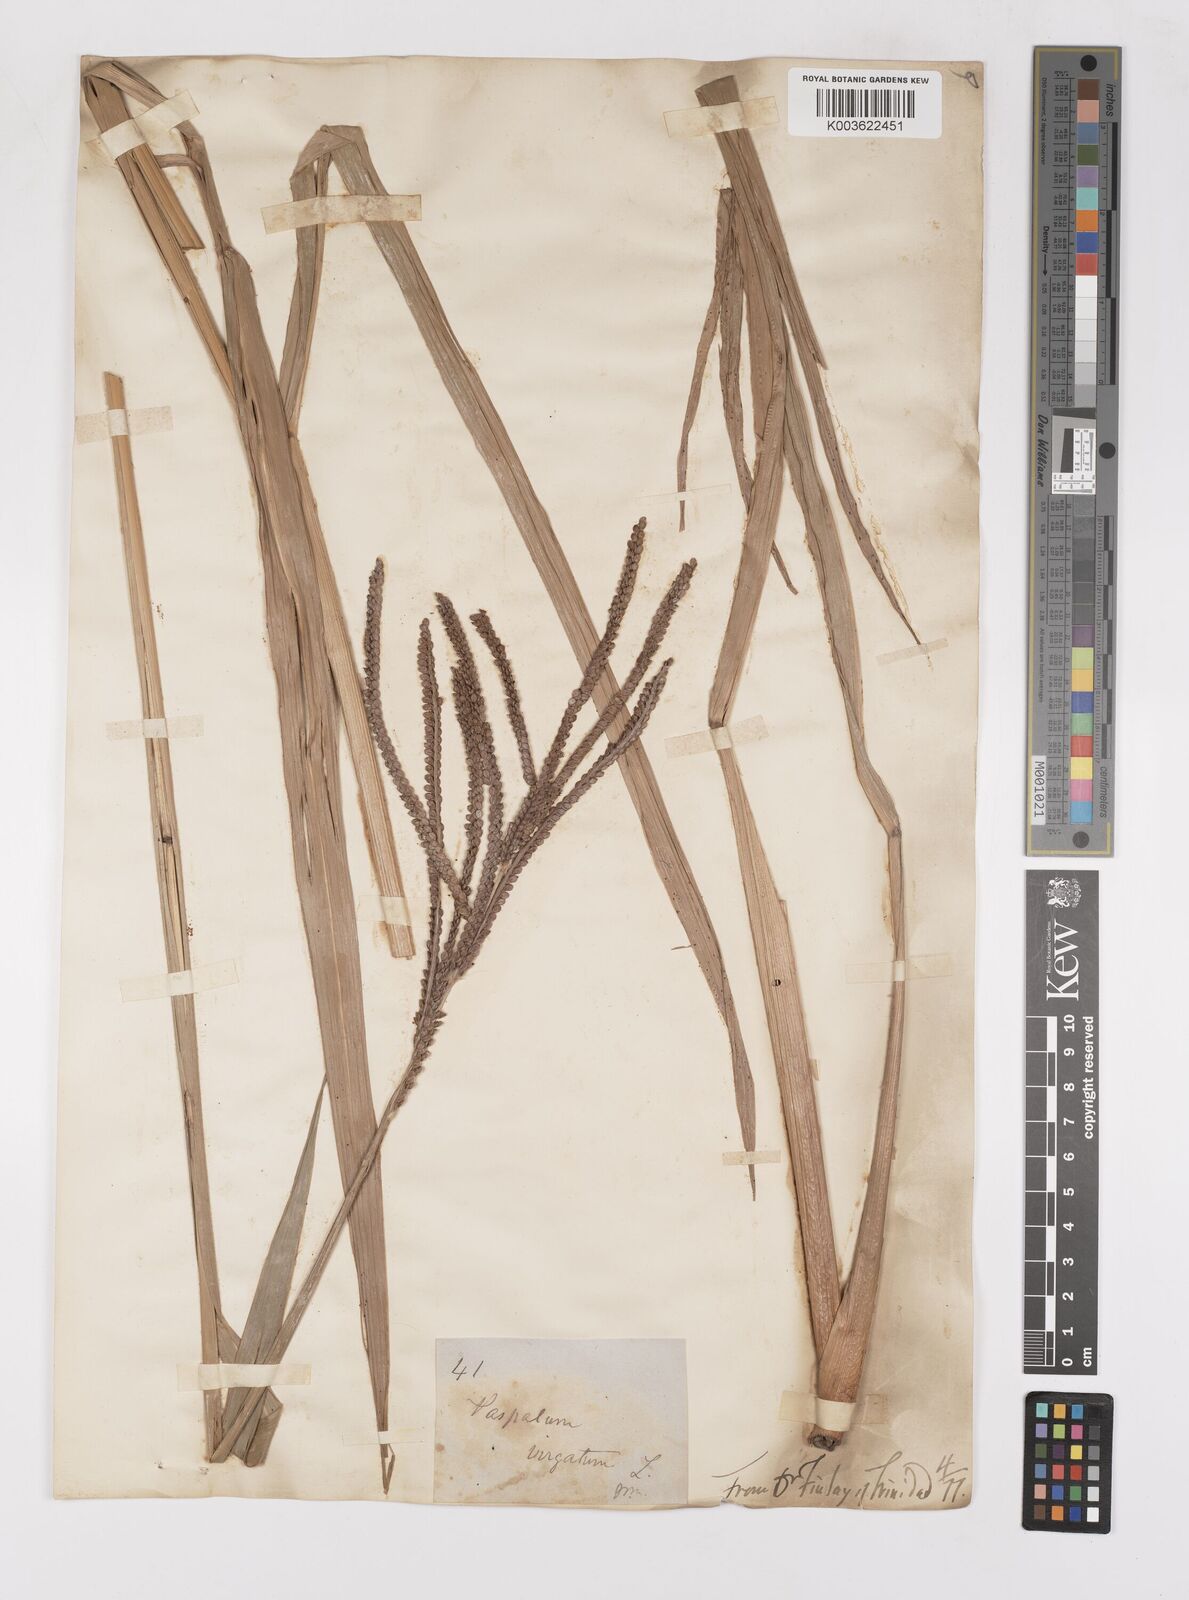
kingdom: Plantae
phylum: Tracheophyta
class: Liliopsida
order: Poales
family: Poaceae
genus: Paspalum
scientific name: Paspalum virgatum
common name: Talquezal
